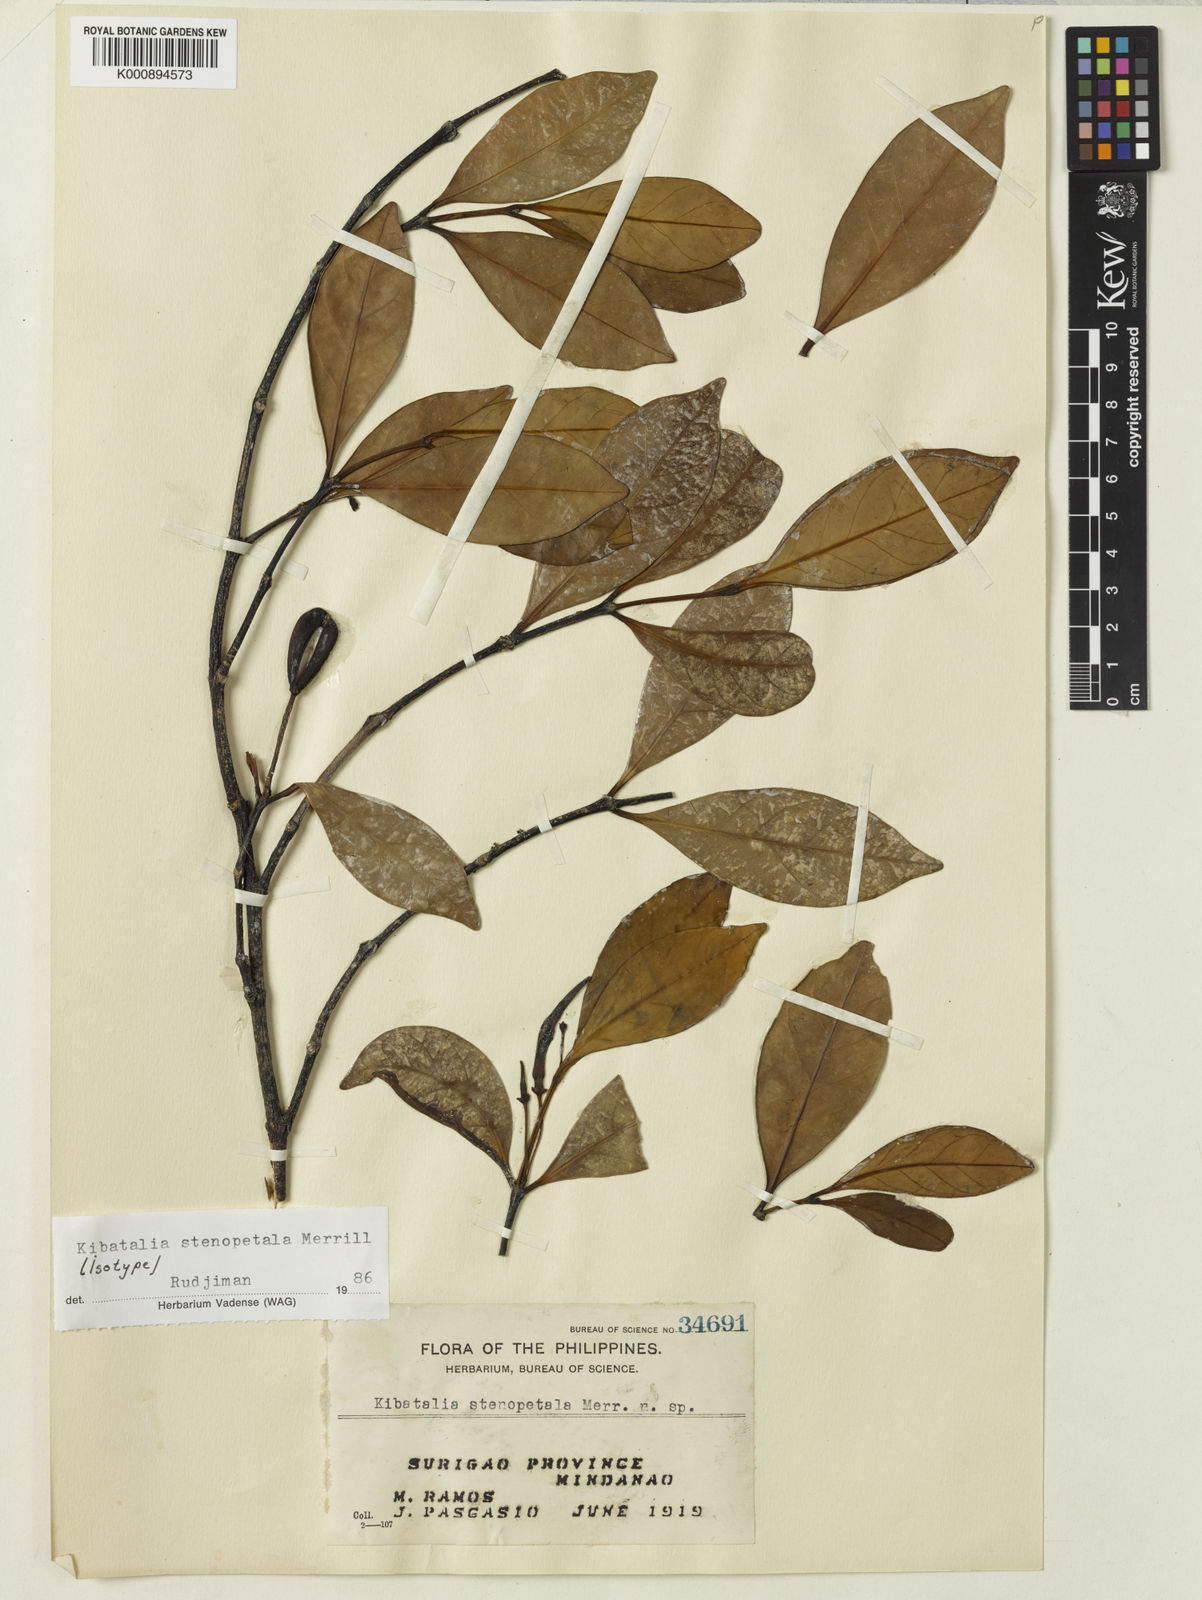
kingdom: Plantae
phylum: Tracheophyta
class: Magnoliopsida
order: Gentianales
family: Apocynaceae
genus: Kibatalia
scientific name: Kibatalia stenopetala
